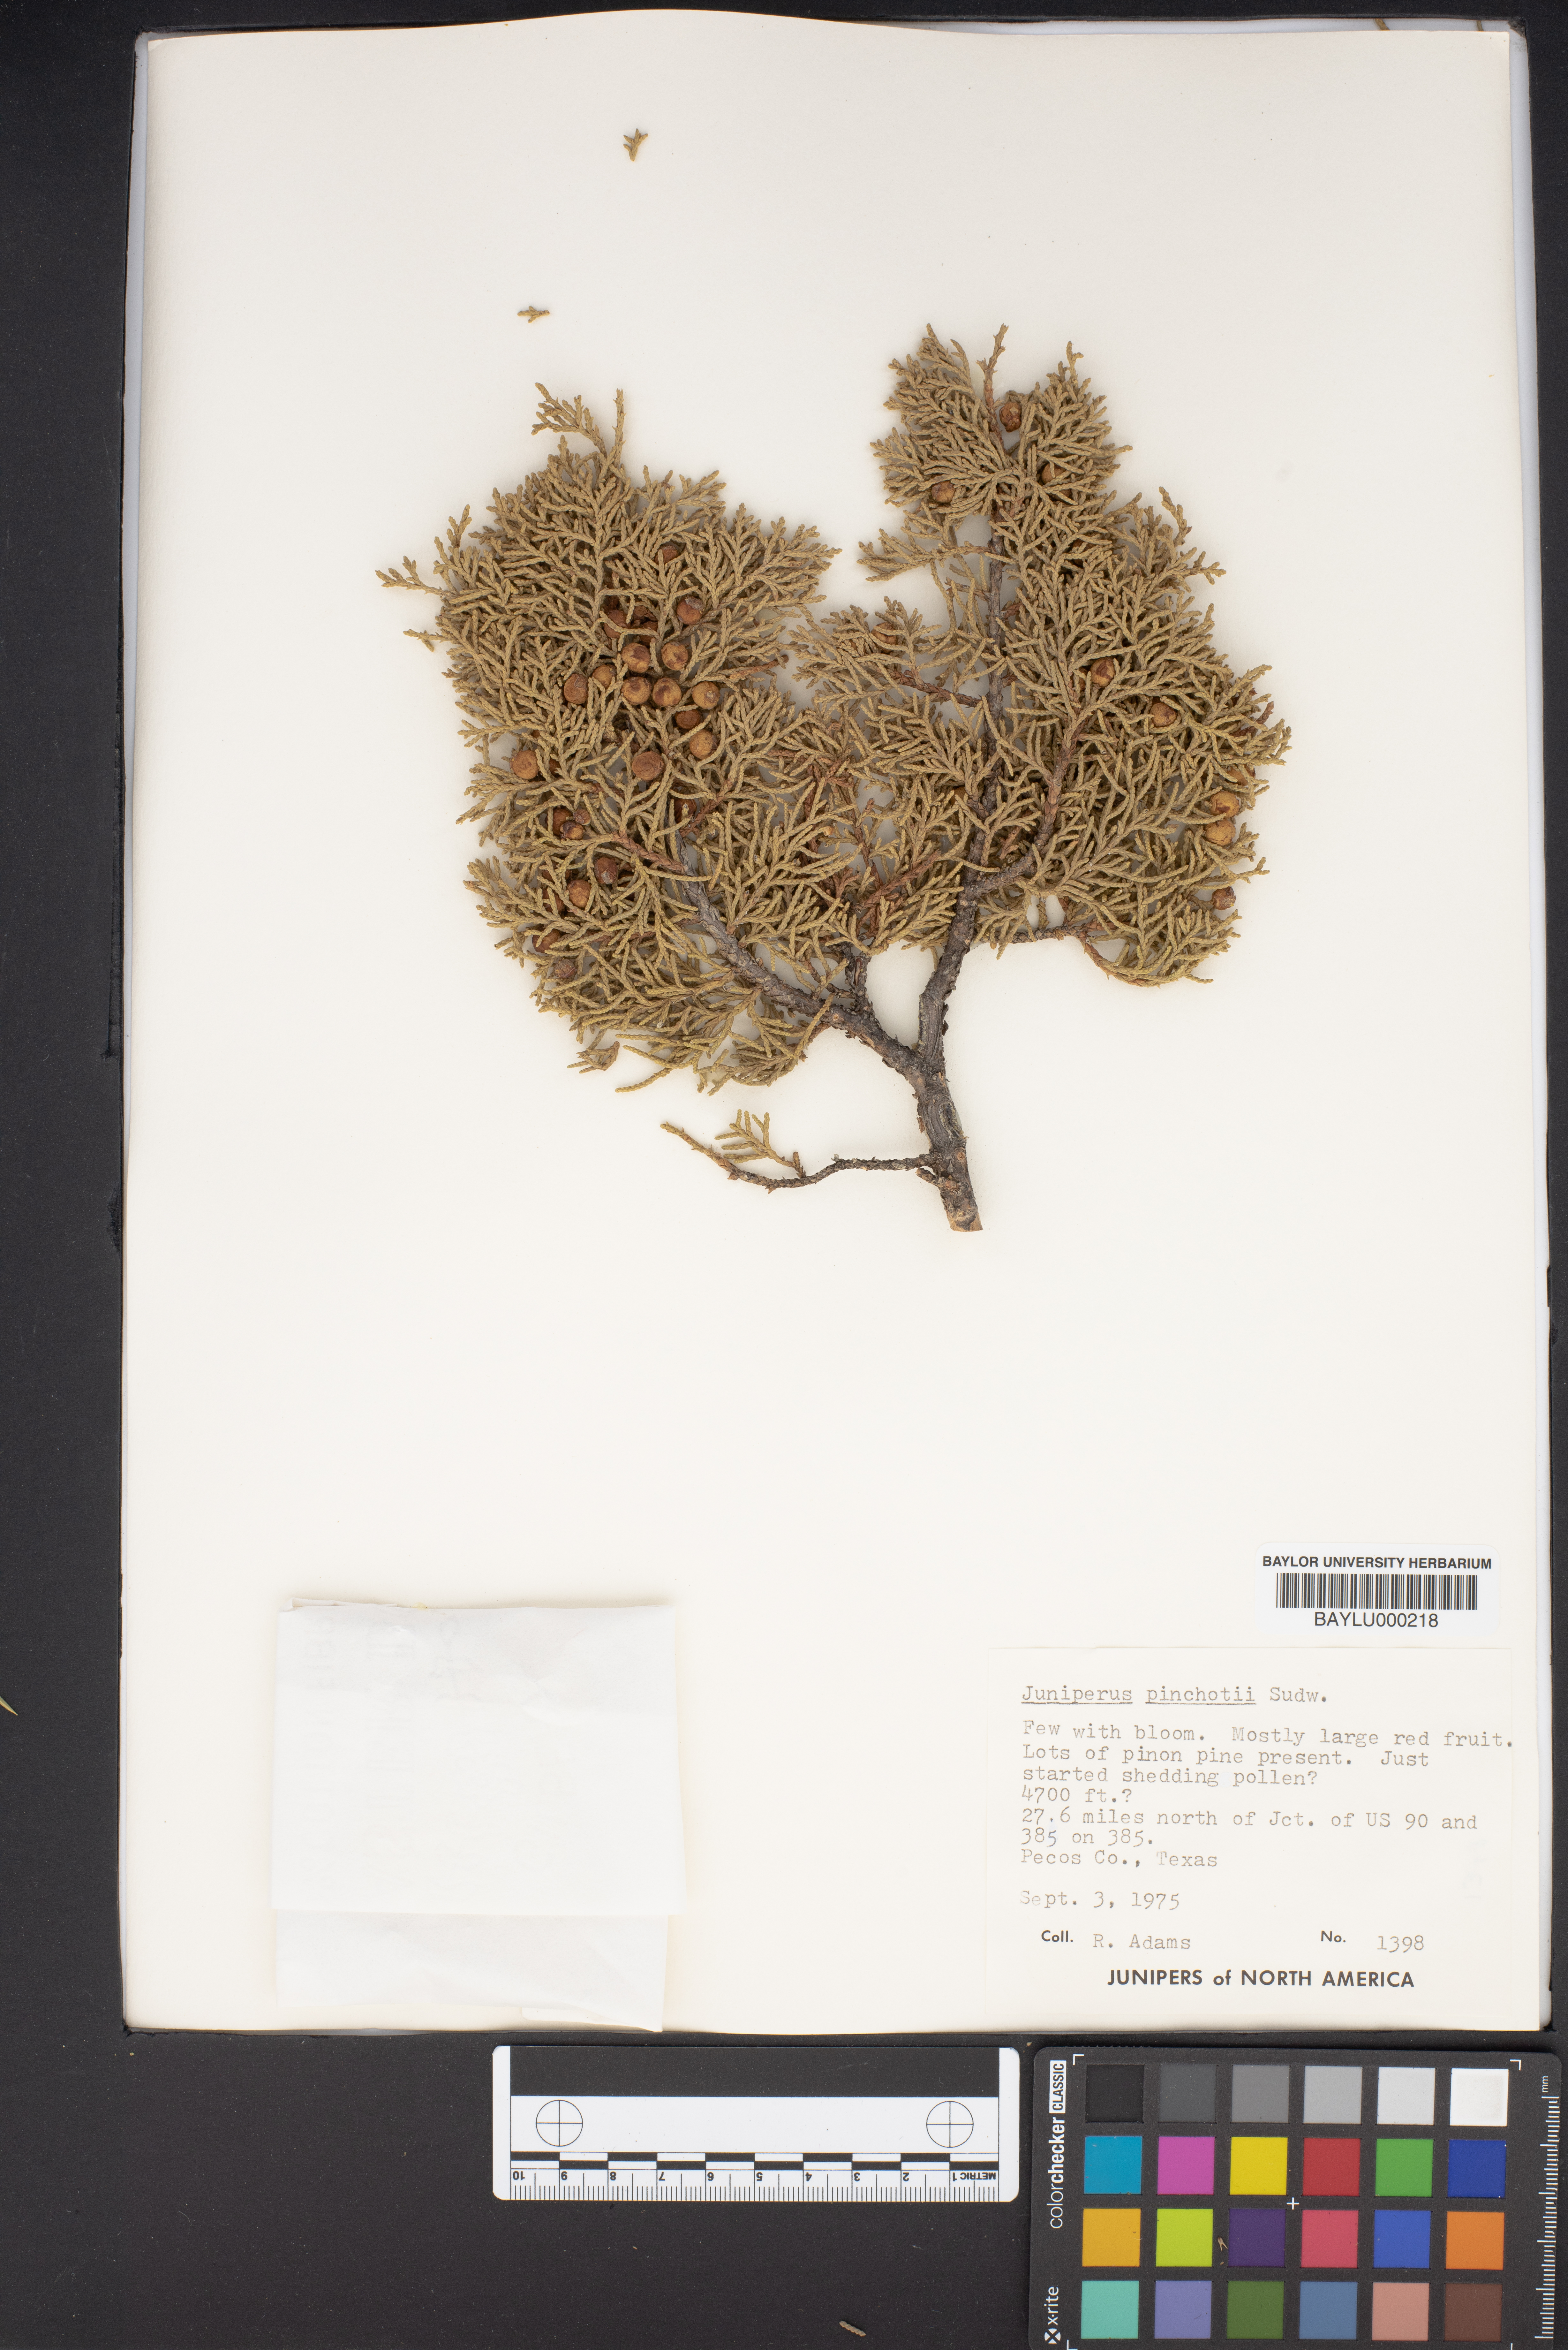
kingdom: Plantae
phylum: Tracheophyta
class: Pinopsida
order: Pinales
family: Cupressaceae
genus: Juniperus
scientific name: Juniperus pinchotii
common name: Pinchot juniper
